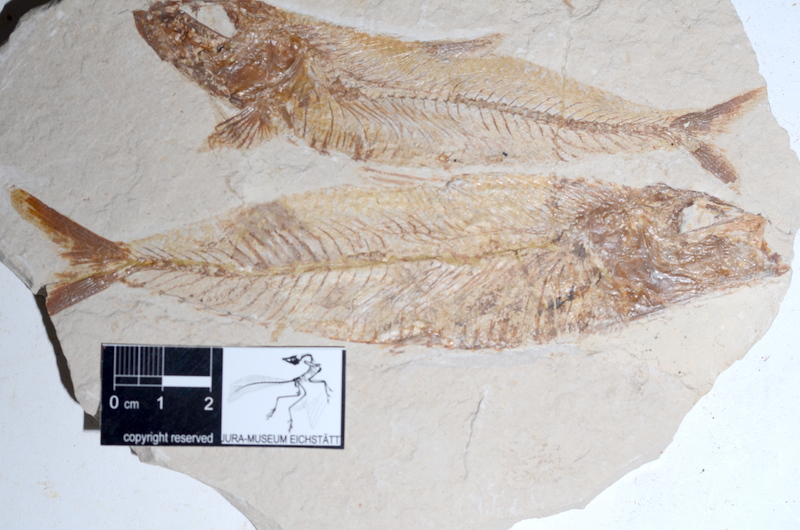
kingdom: Animalia
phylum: Chordata
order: Aulopiformes
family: Halecidae
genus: Phylactocephalus
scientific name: Phylactocephalus microlepis
